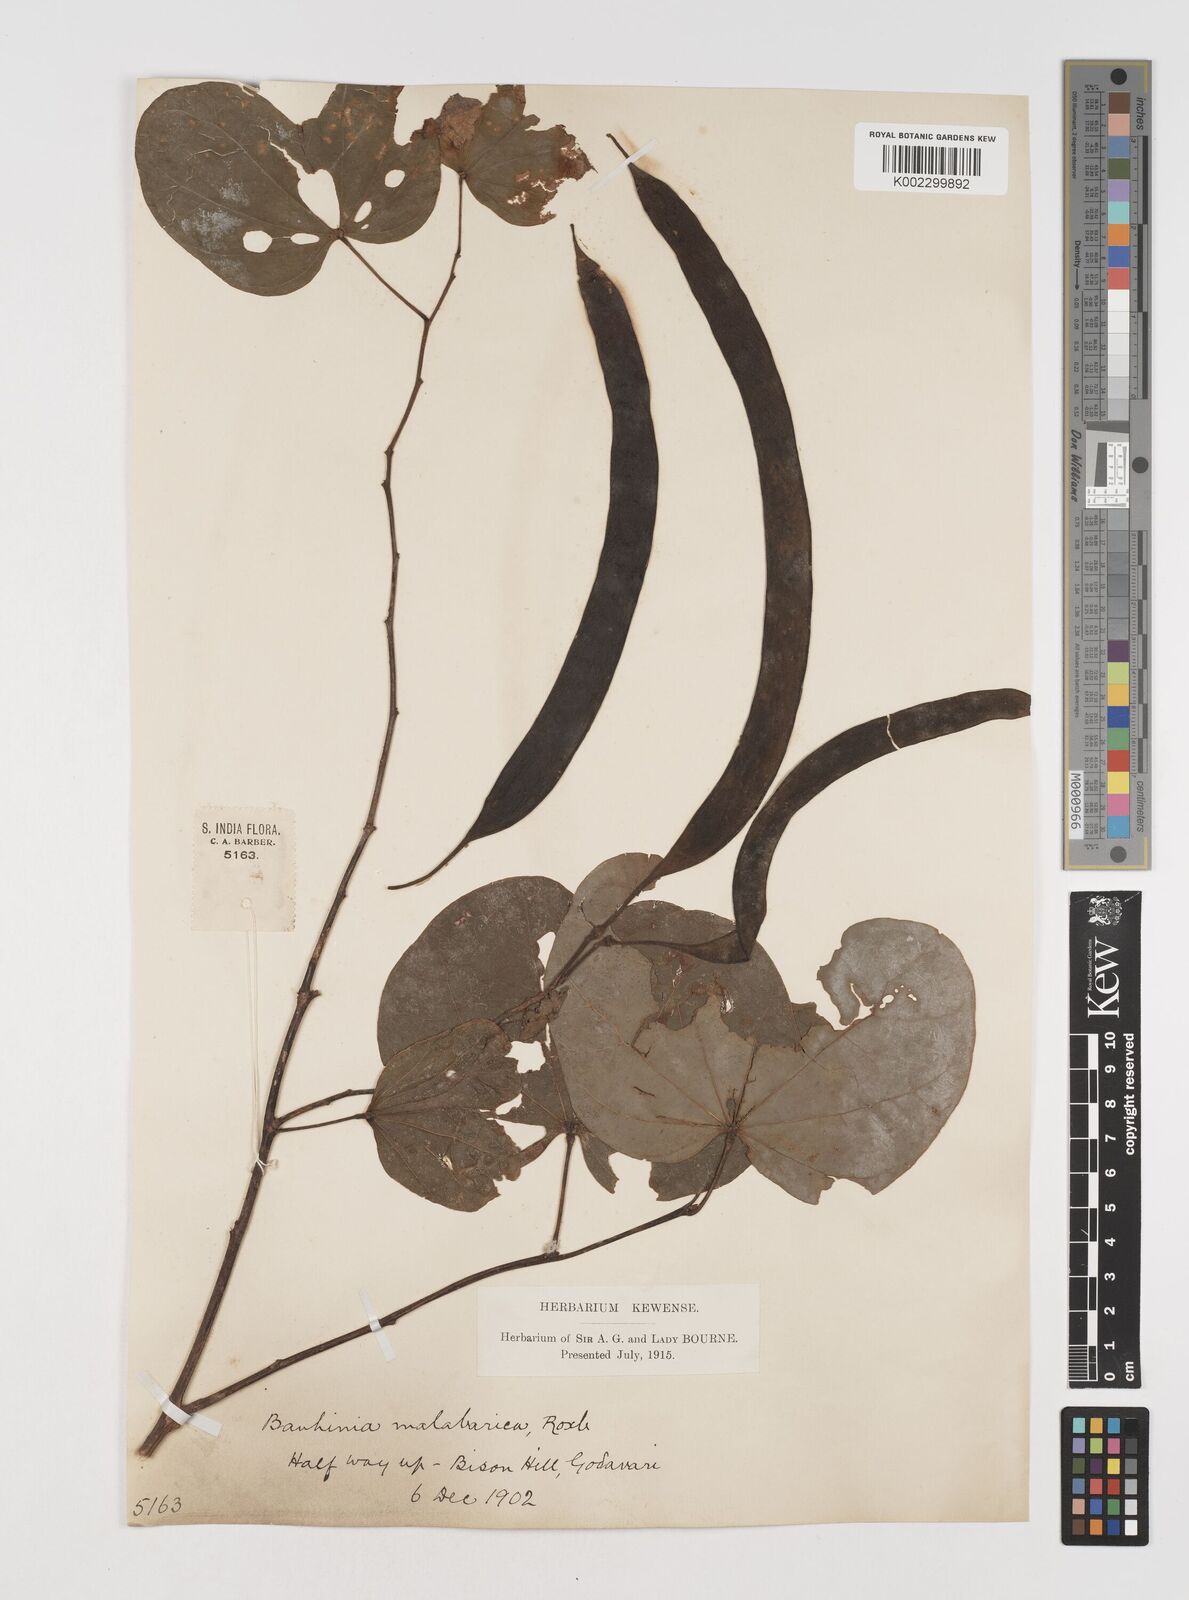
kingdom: Plantae
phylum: Tracheophyta
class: Magnoliopsida
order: Fabales
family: Fabaceae
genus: Piliostigma
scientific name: Piliostigma malabaricum
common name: Malabar bauhinia
